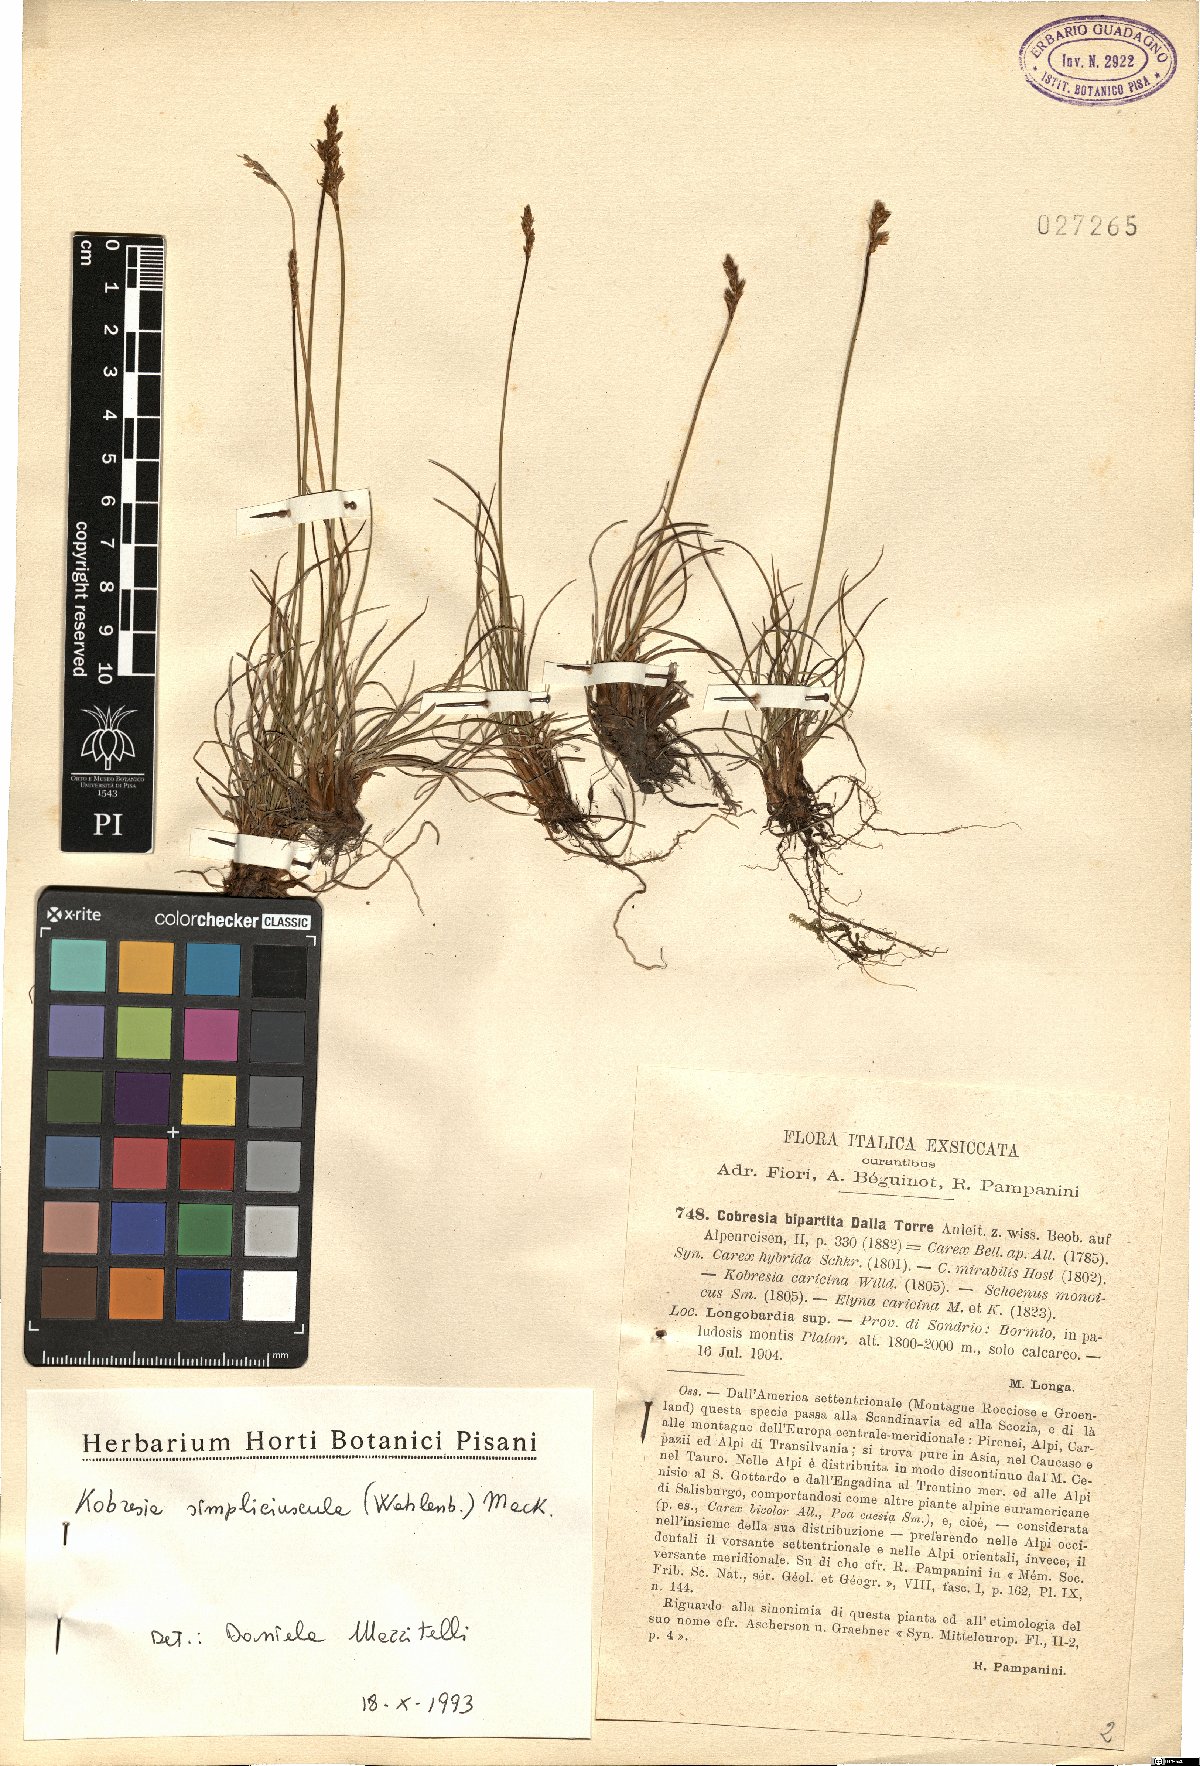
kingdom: Plantae
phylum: Tracheophyta
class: Liliopsida
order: Poales
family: Cyperaceae
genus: Carex
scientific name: Carex simpliciuscula
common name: Simple bog sedge
